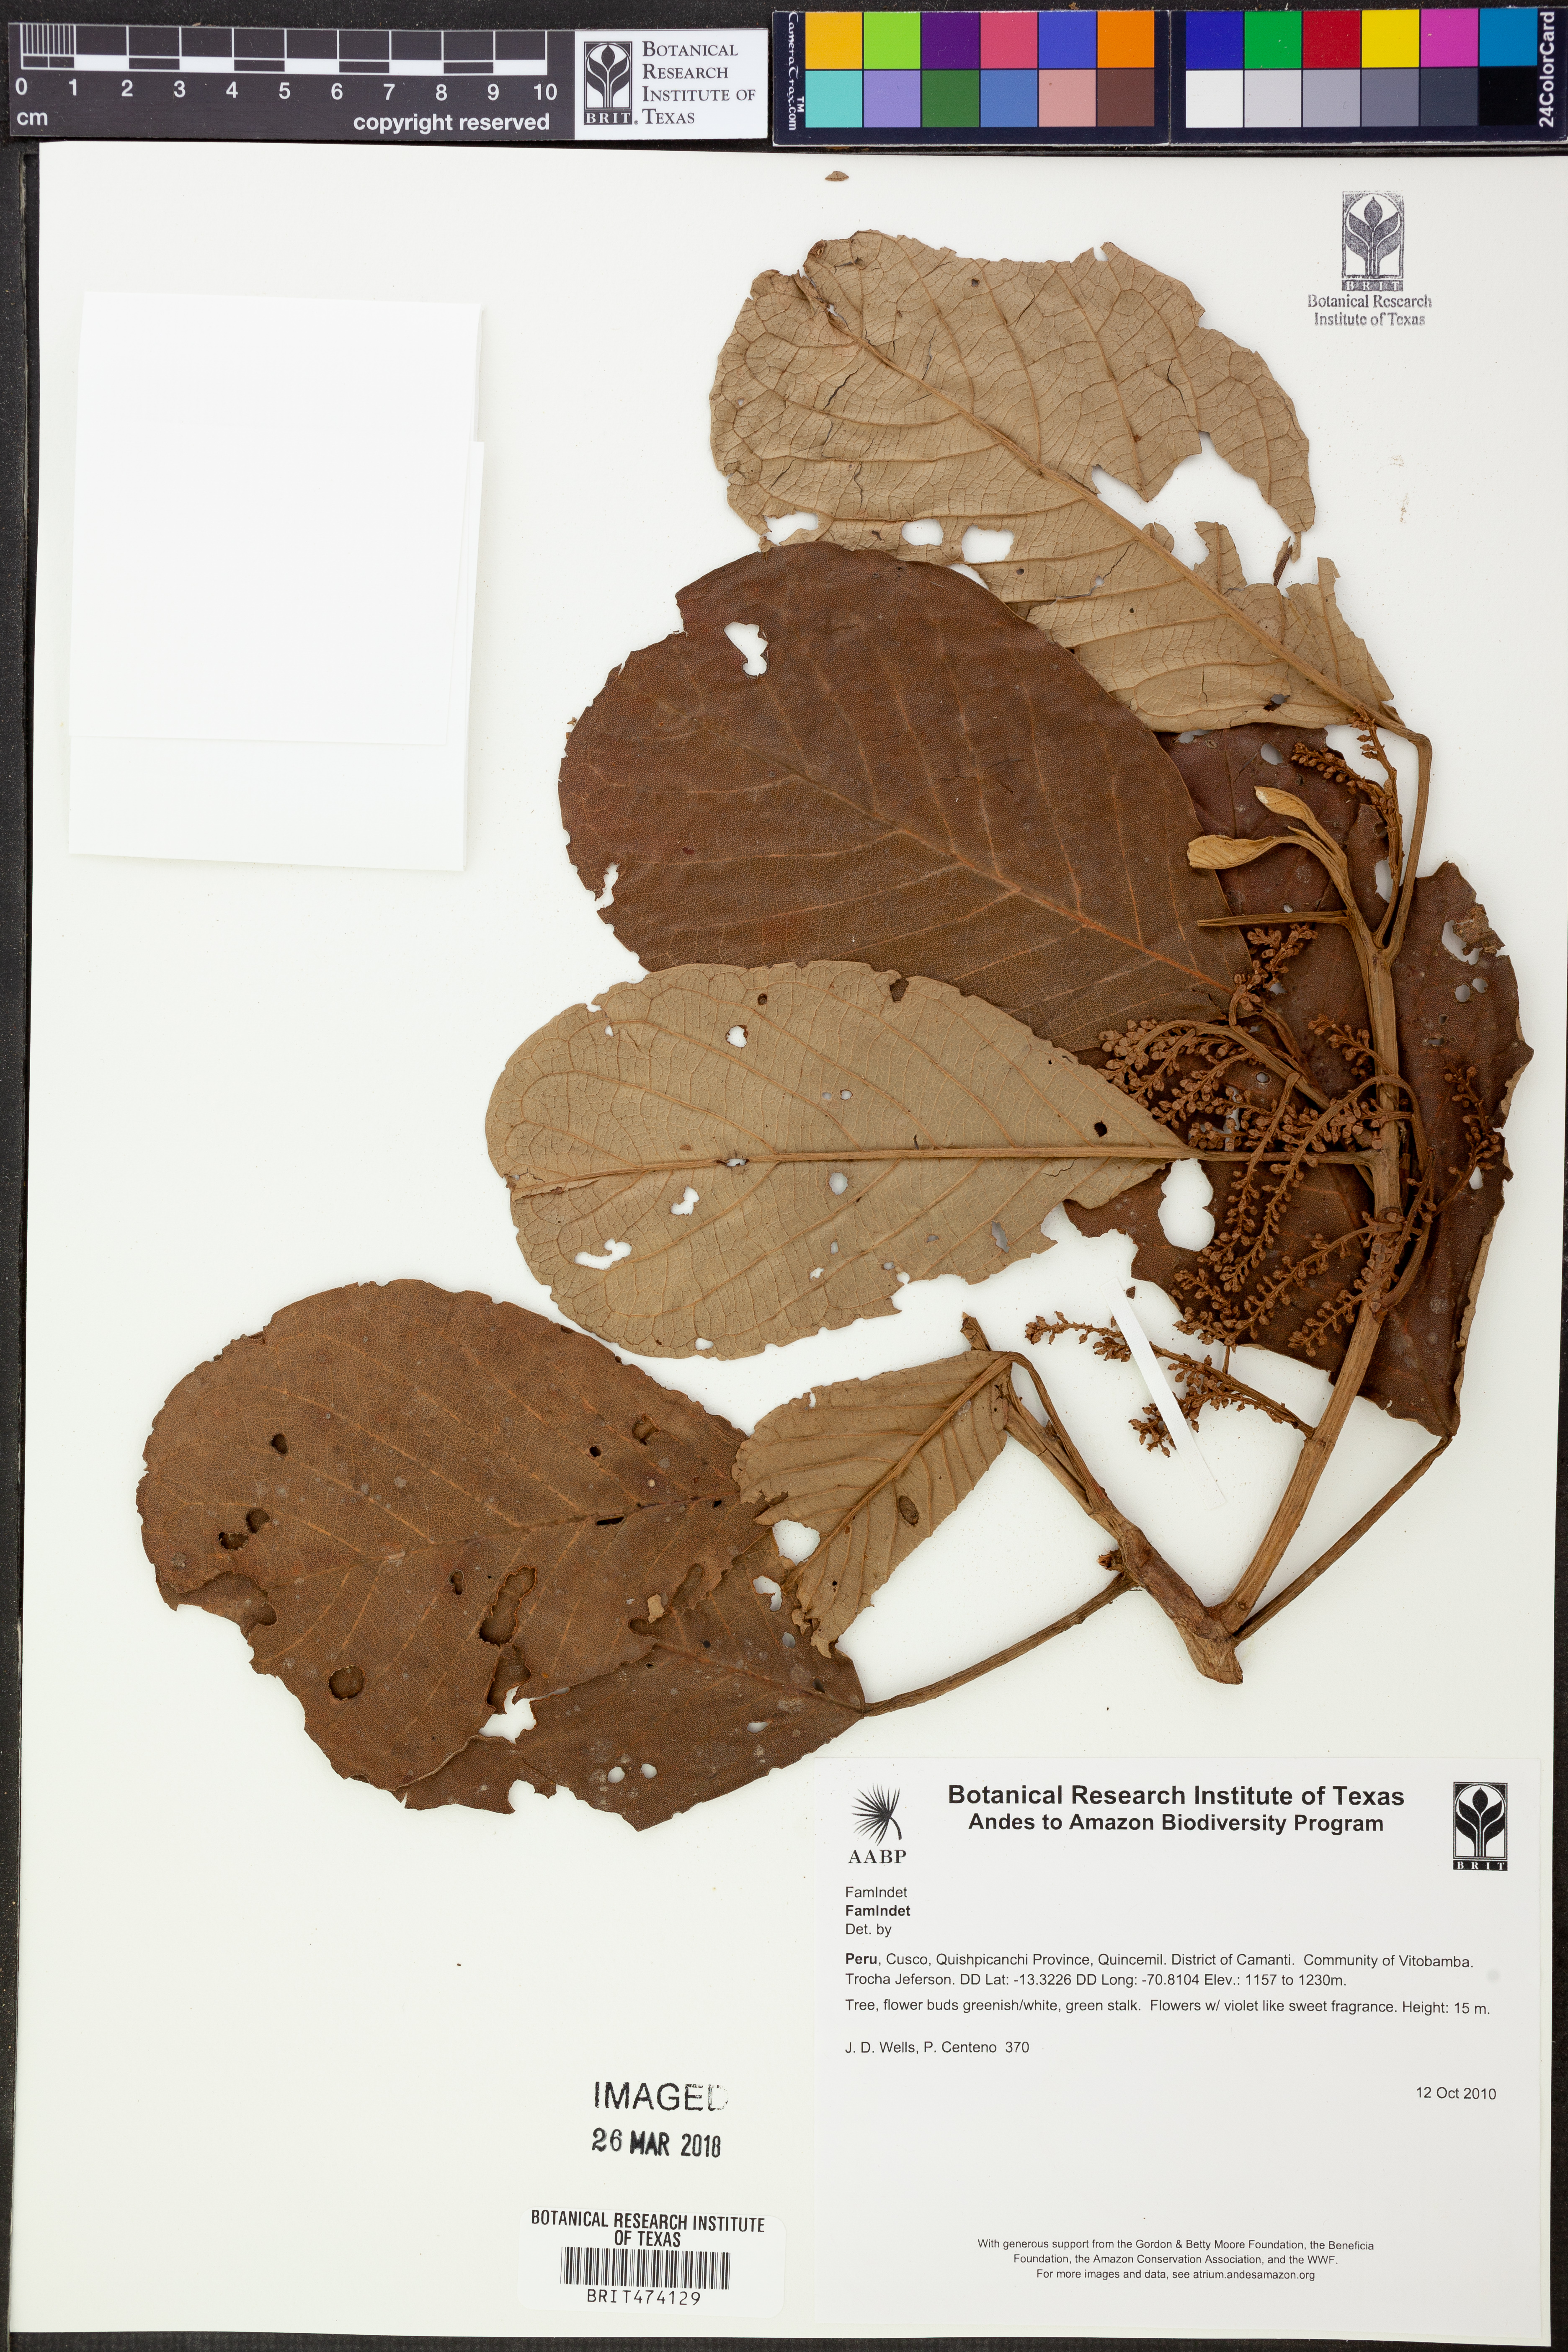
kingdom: Plantae
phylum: Tracheophyta
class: Magnoliopsida
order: Malpighiales
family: Euphorbiaceae
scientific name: Euphorbiaceae
